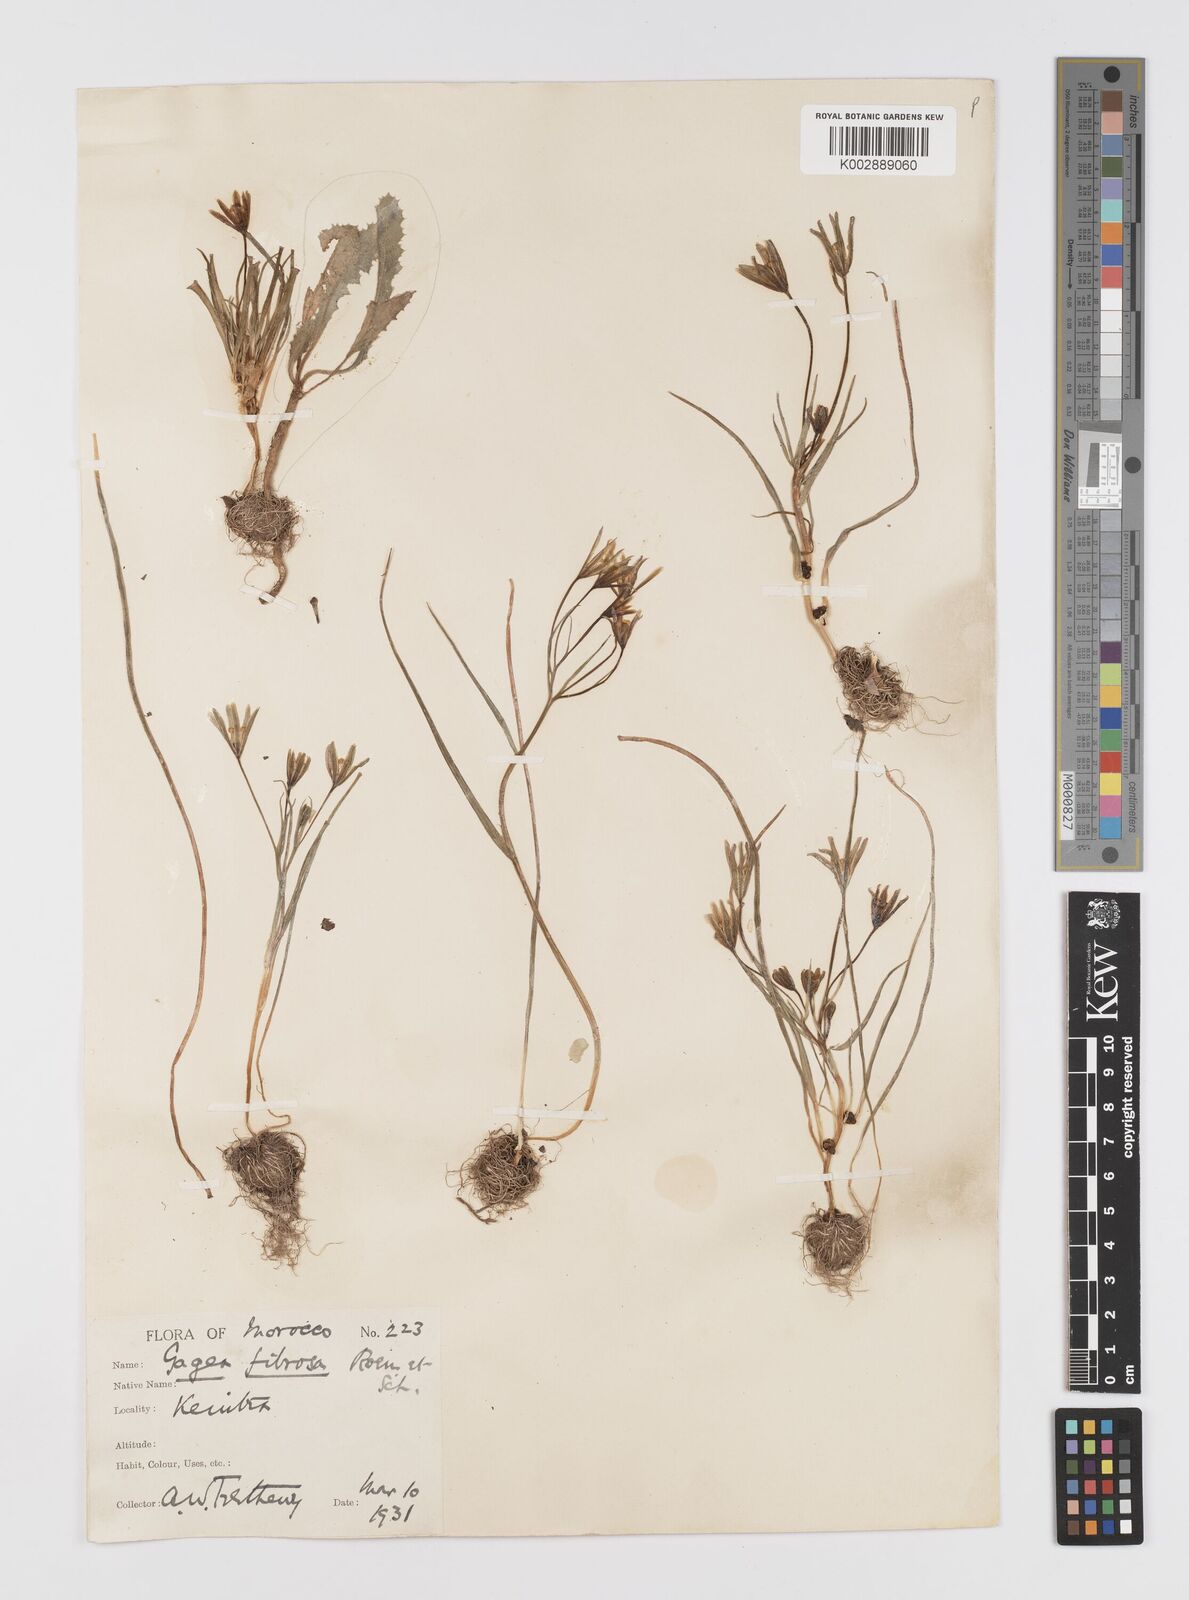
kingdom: Plantae
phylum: Tracheophyta
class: Liliopsida
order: Liliales
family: Liliaceae
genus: Gagea
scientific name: Gagea fibrosa
